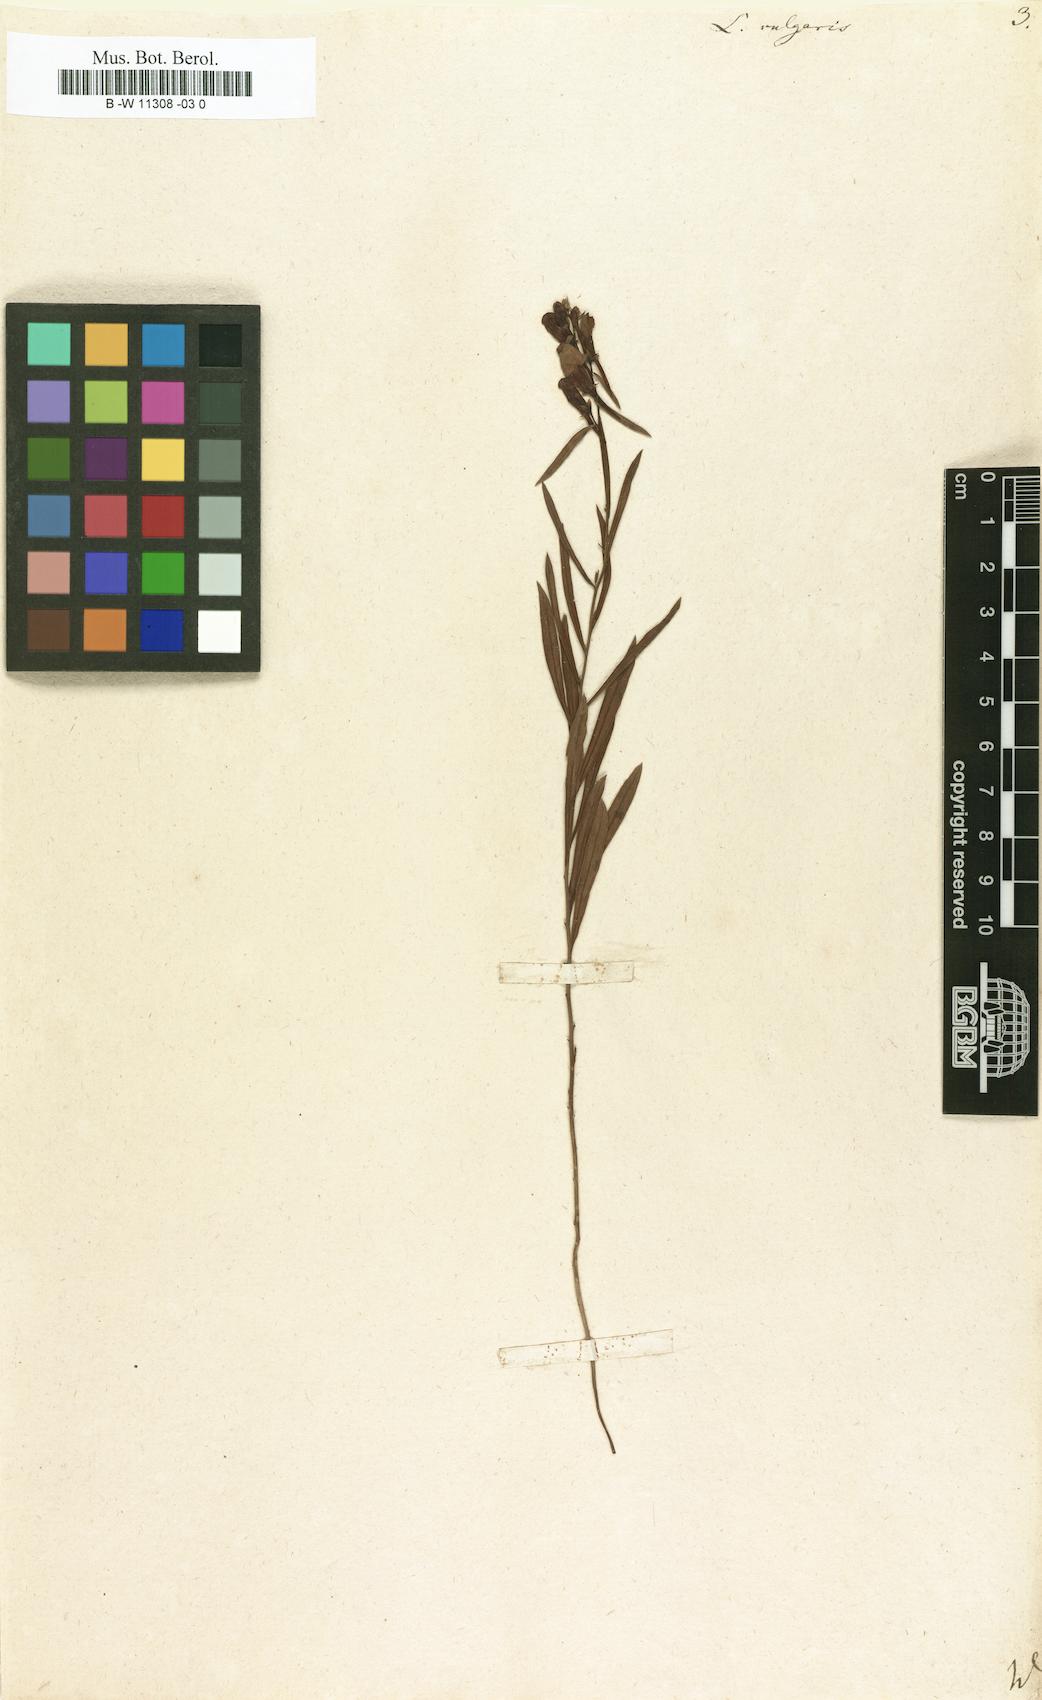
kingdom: Plantae
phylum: Tracheophyta
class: Magnoliopsida
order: Lamiales
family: Plantaginaceae
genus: Linaria
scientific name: Linaria vulgaris
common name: Butter and eggs
